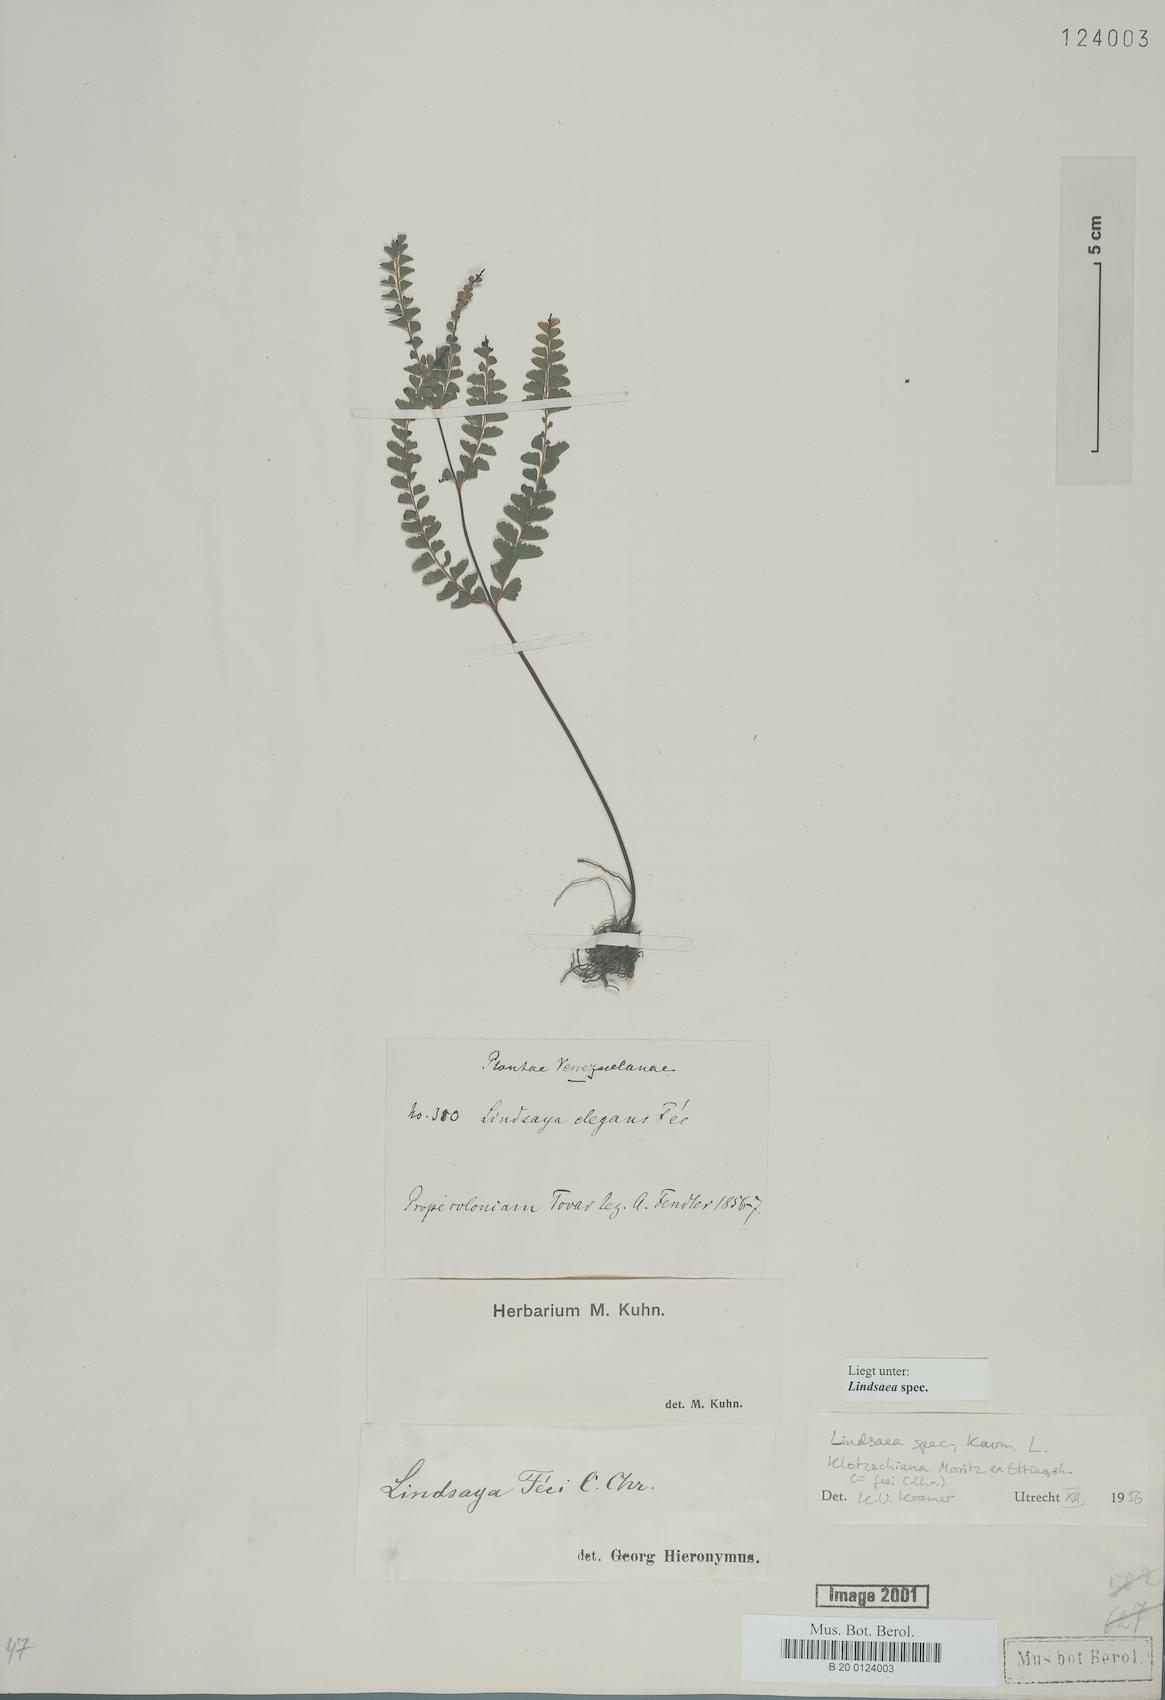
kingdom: Plantae
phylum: Tracheophyta
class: Polypodiopsida
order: Polypodiales
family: Lindsaeaceae
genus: Lindsaea
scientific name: Lindsaea feei
